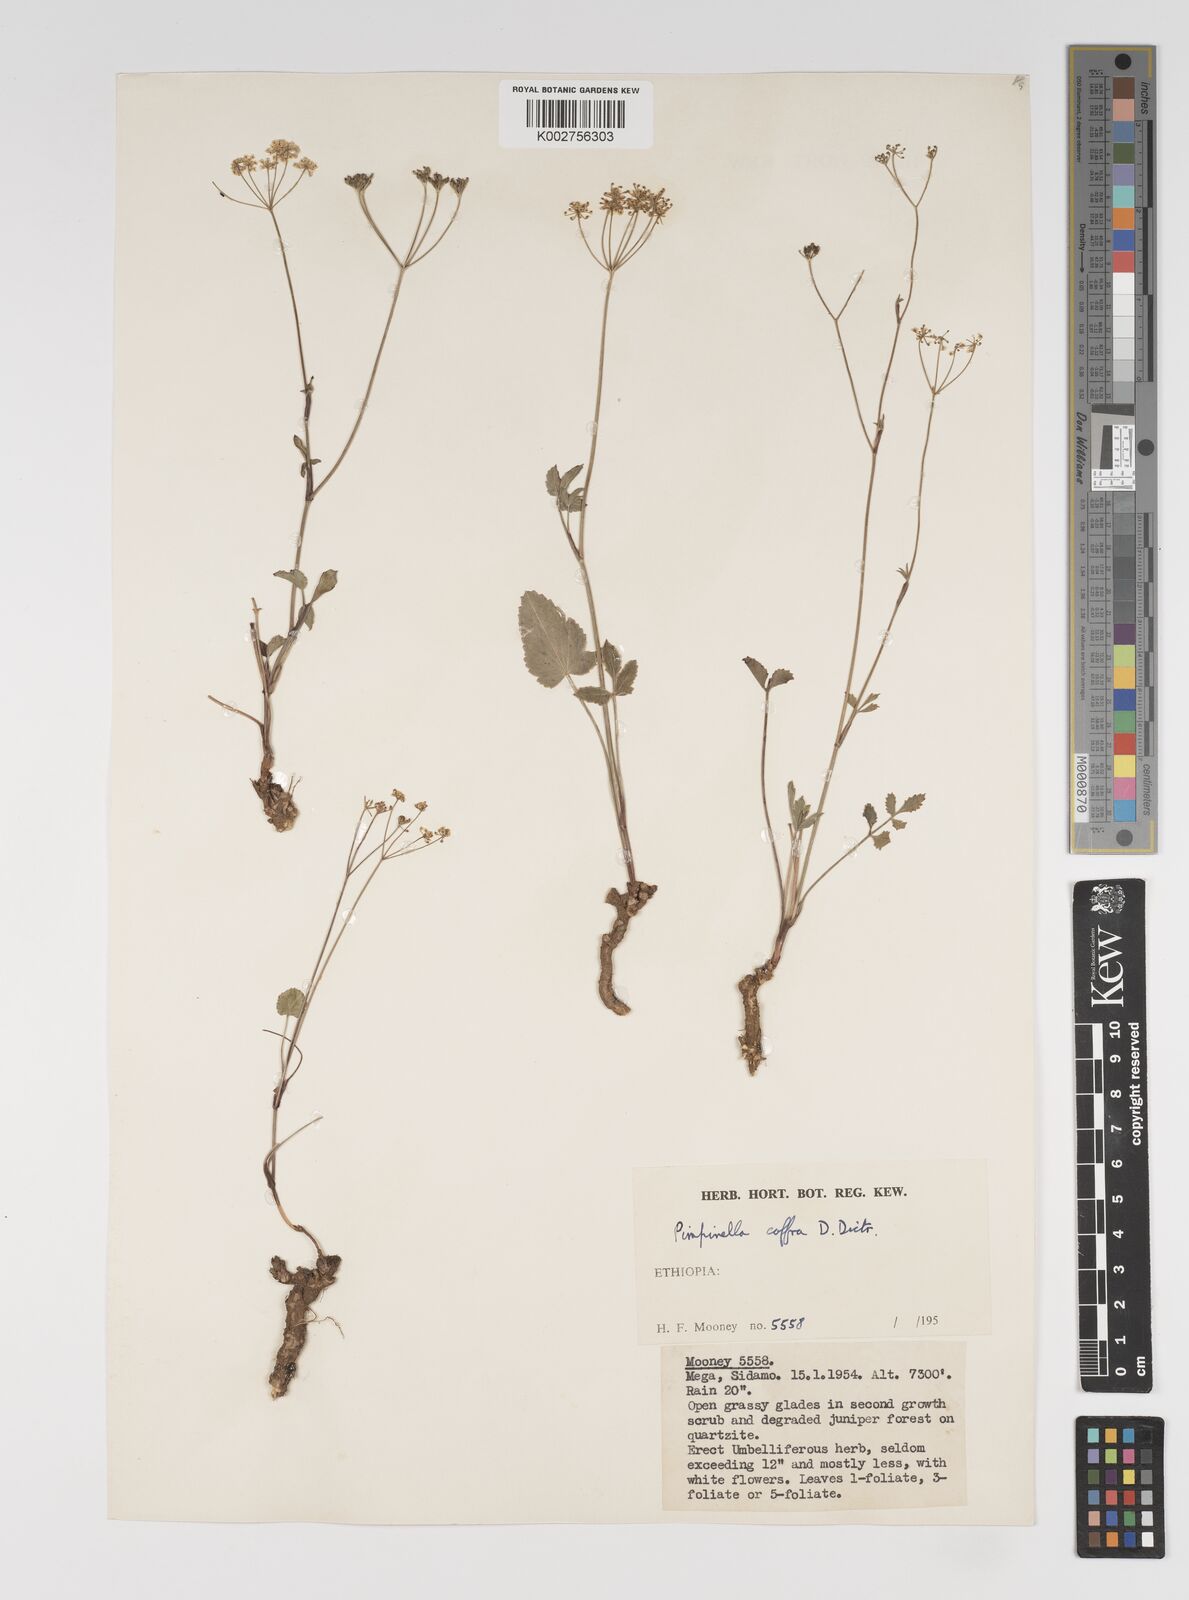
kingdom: Plantae
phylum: Tracheophyta
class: Magnoliopsida
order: Apiales
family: Apiaceae
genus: Pimpinella
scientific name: Pimpinella peregrina
